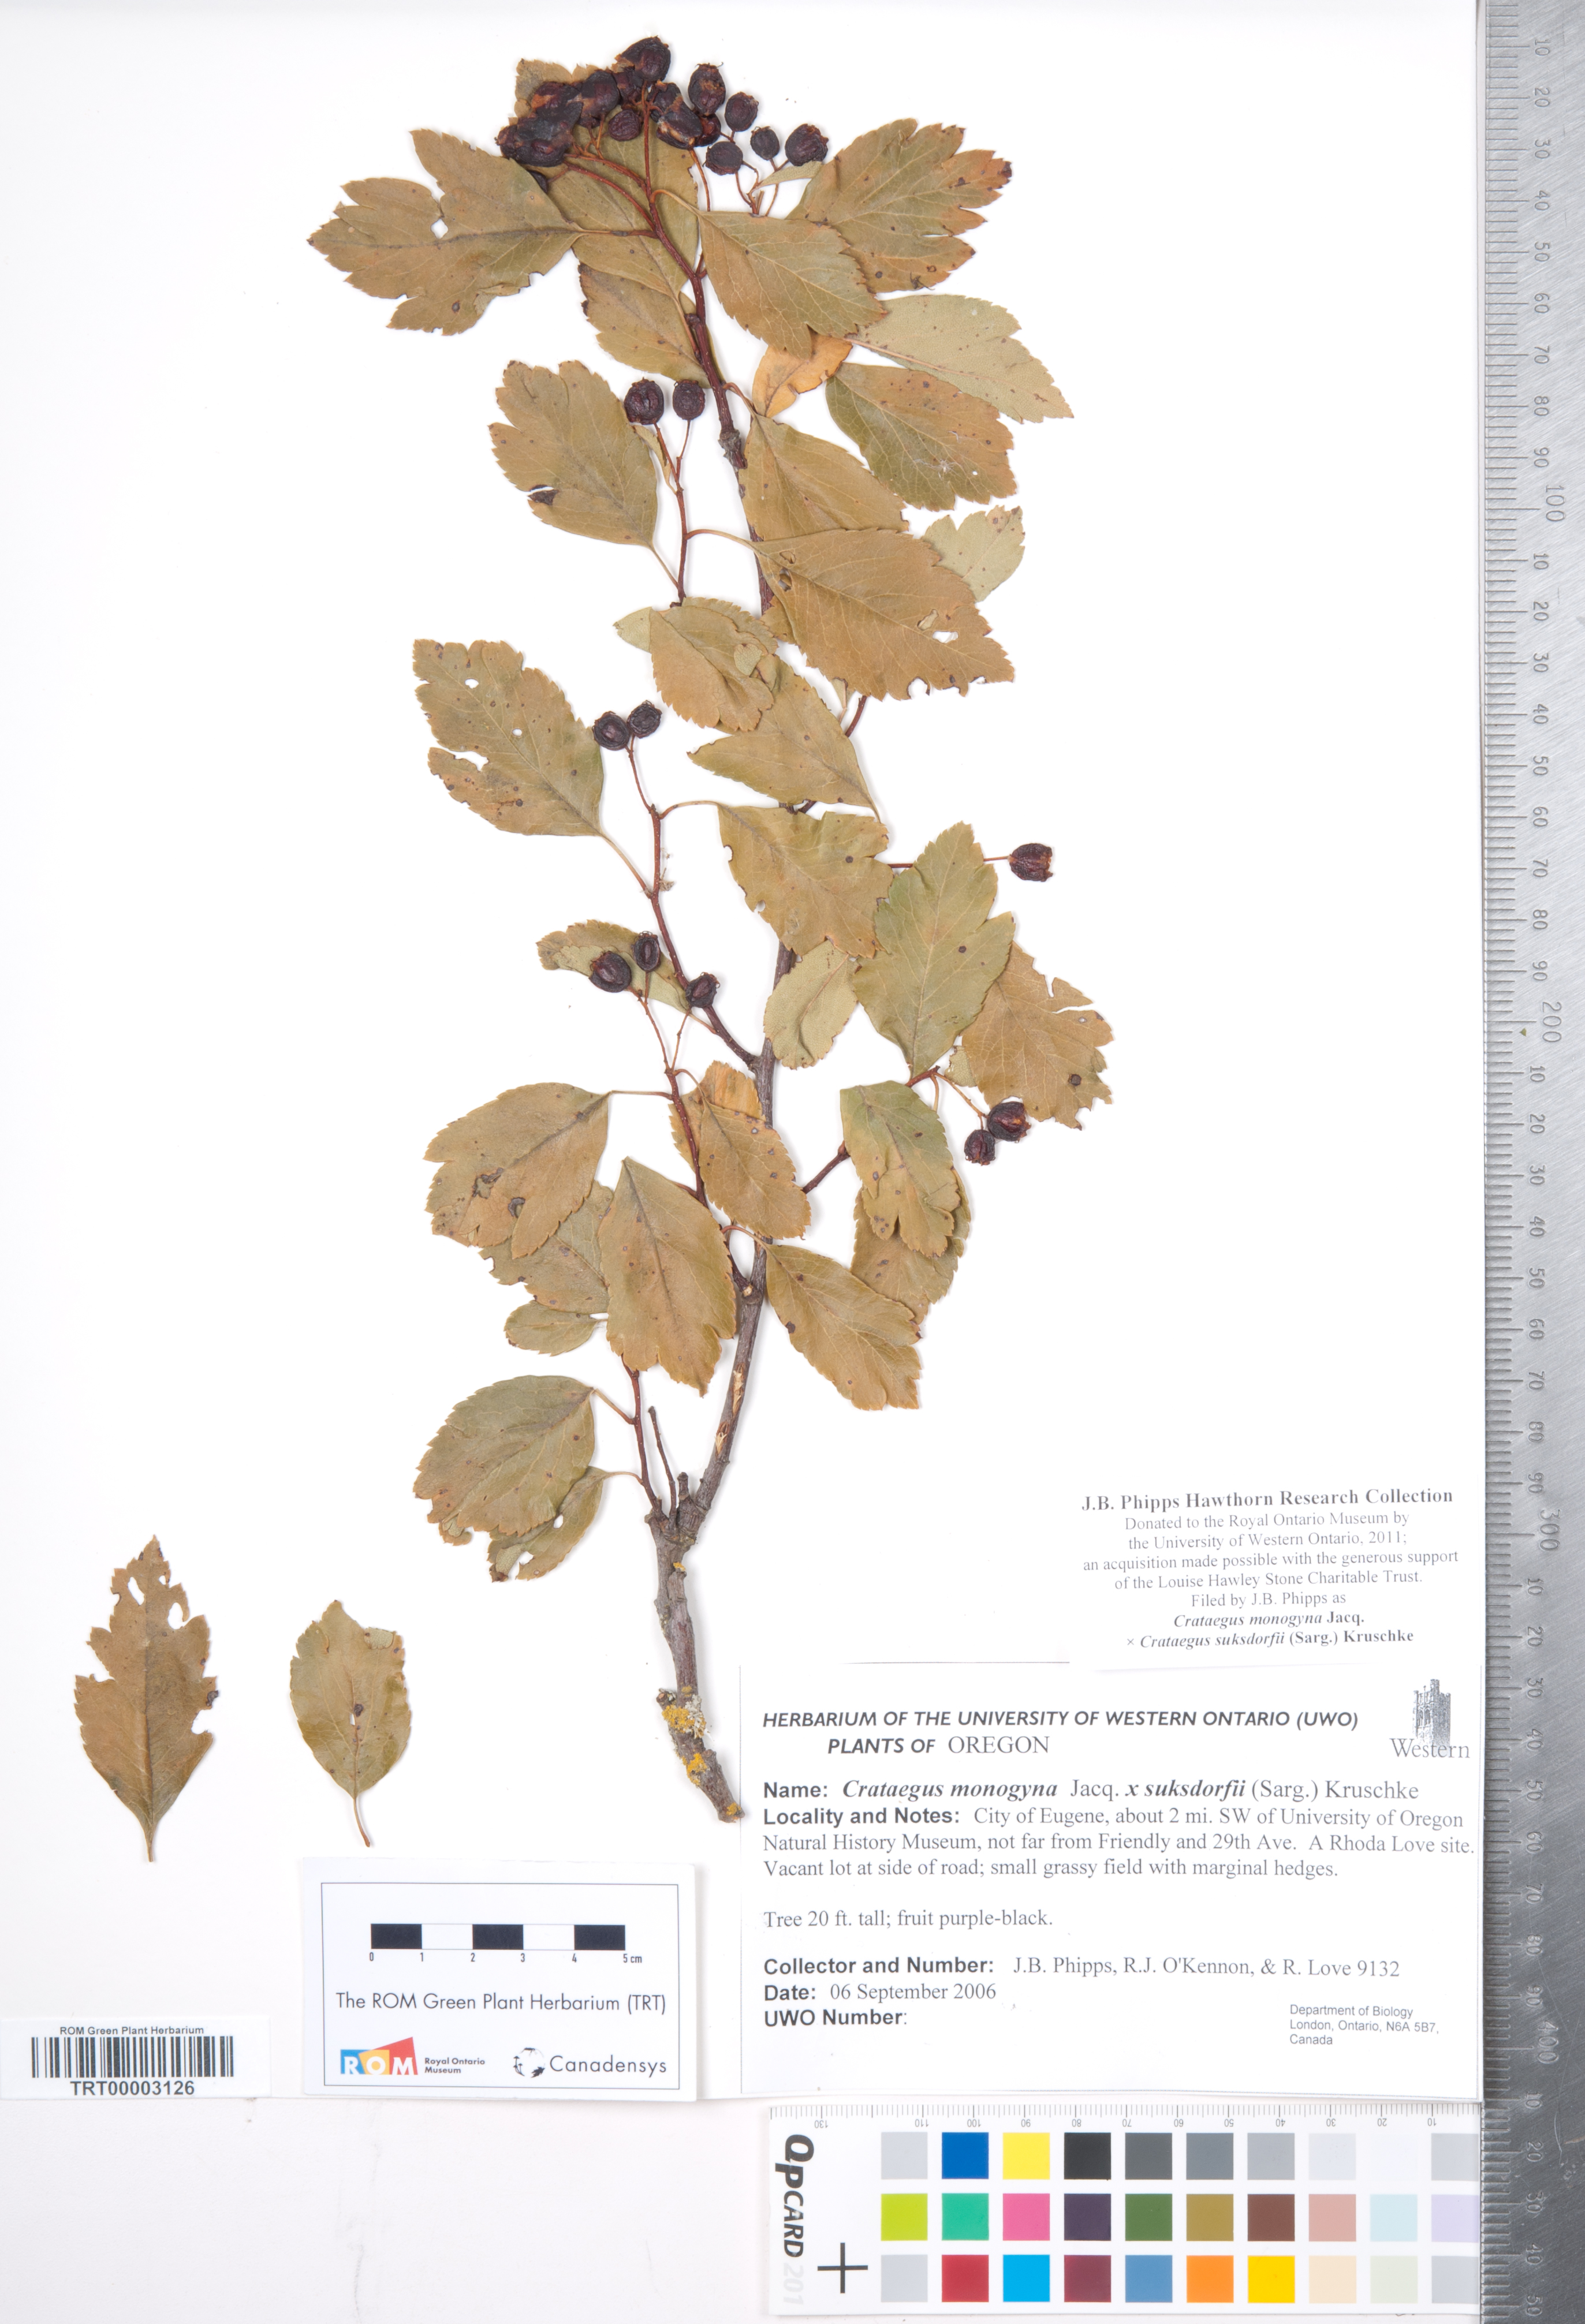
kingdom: Plantae
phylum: Tracheophyta
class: Magnoliopsida
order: Rosales
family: Rosaceae
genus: Crataegus
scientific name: Crataegus
